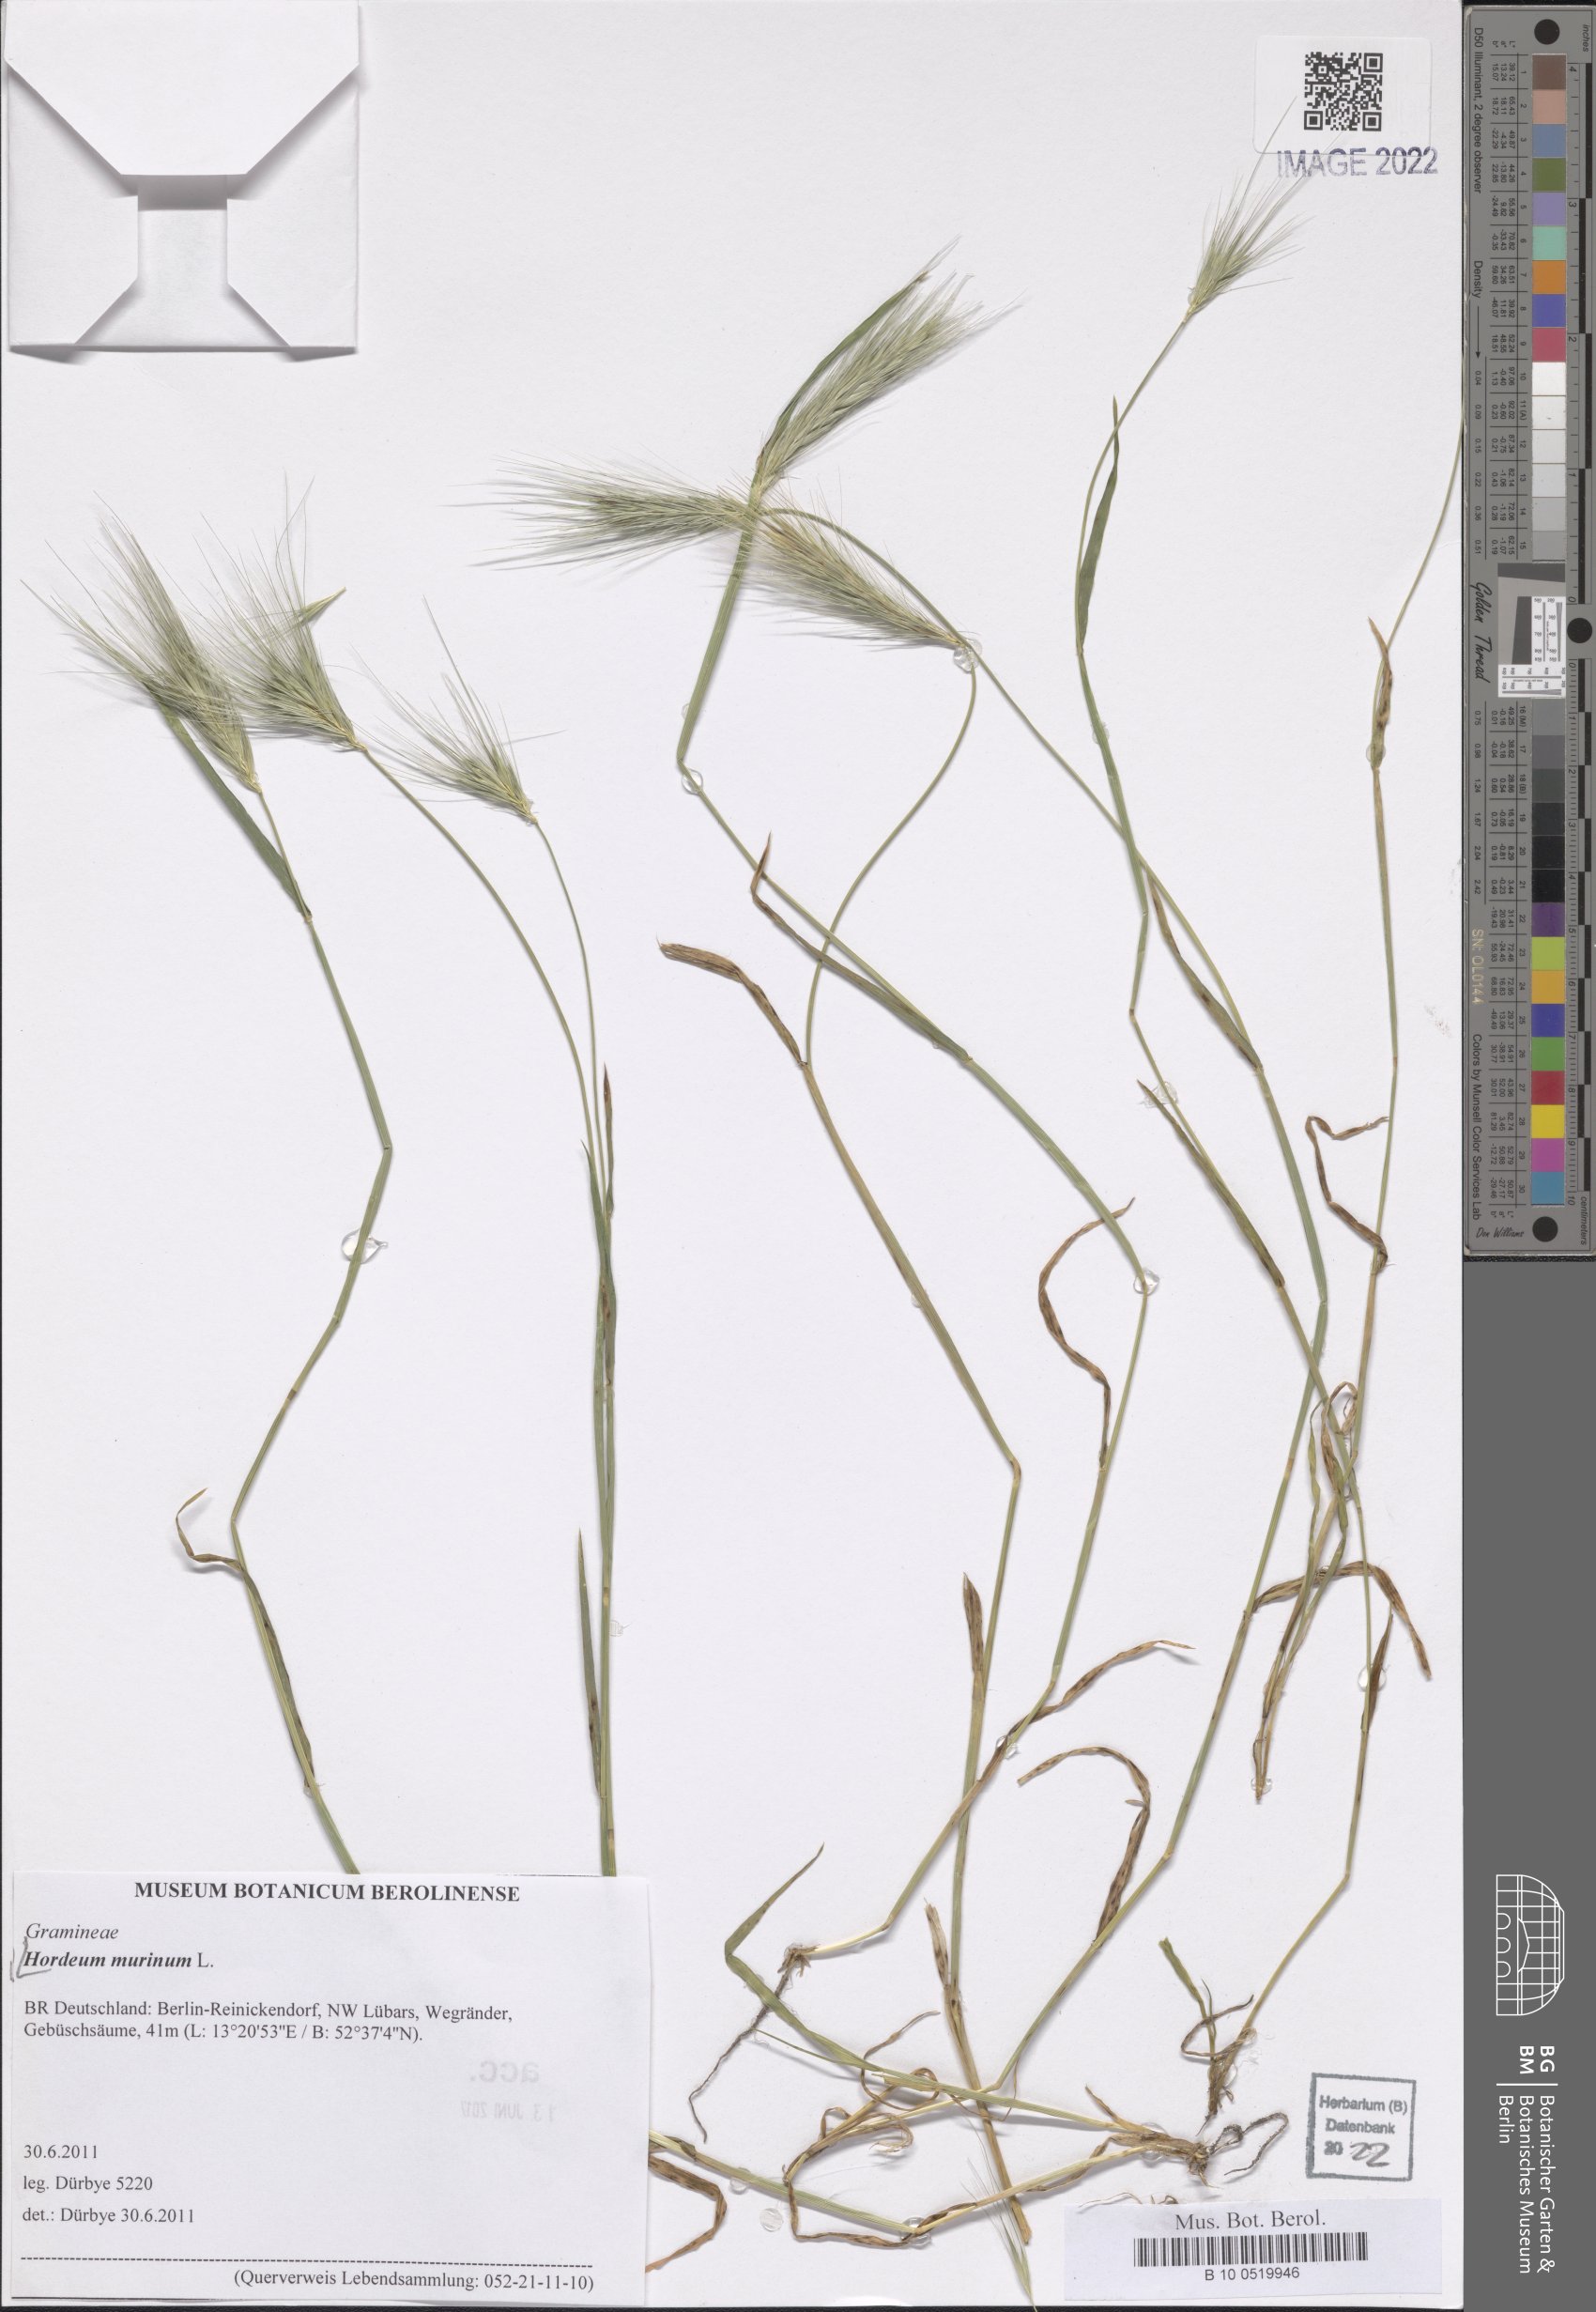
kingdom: Plantae
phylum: Tracheophyta
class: Liliopsida
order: Poales
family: Poaceae
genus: Hordeum
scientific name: Hordeum murinum
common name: Wall barley
